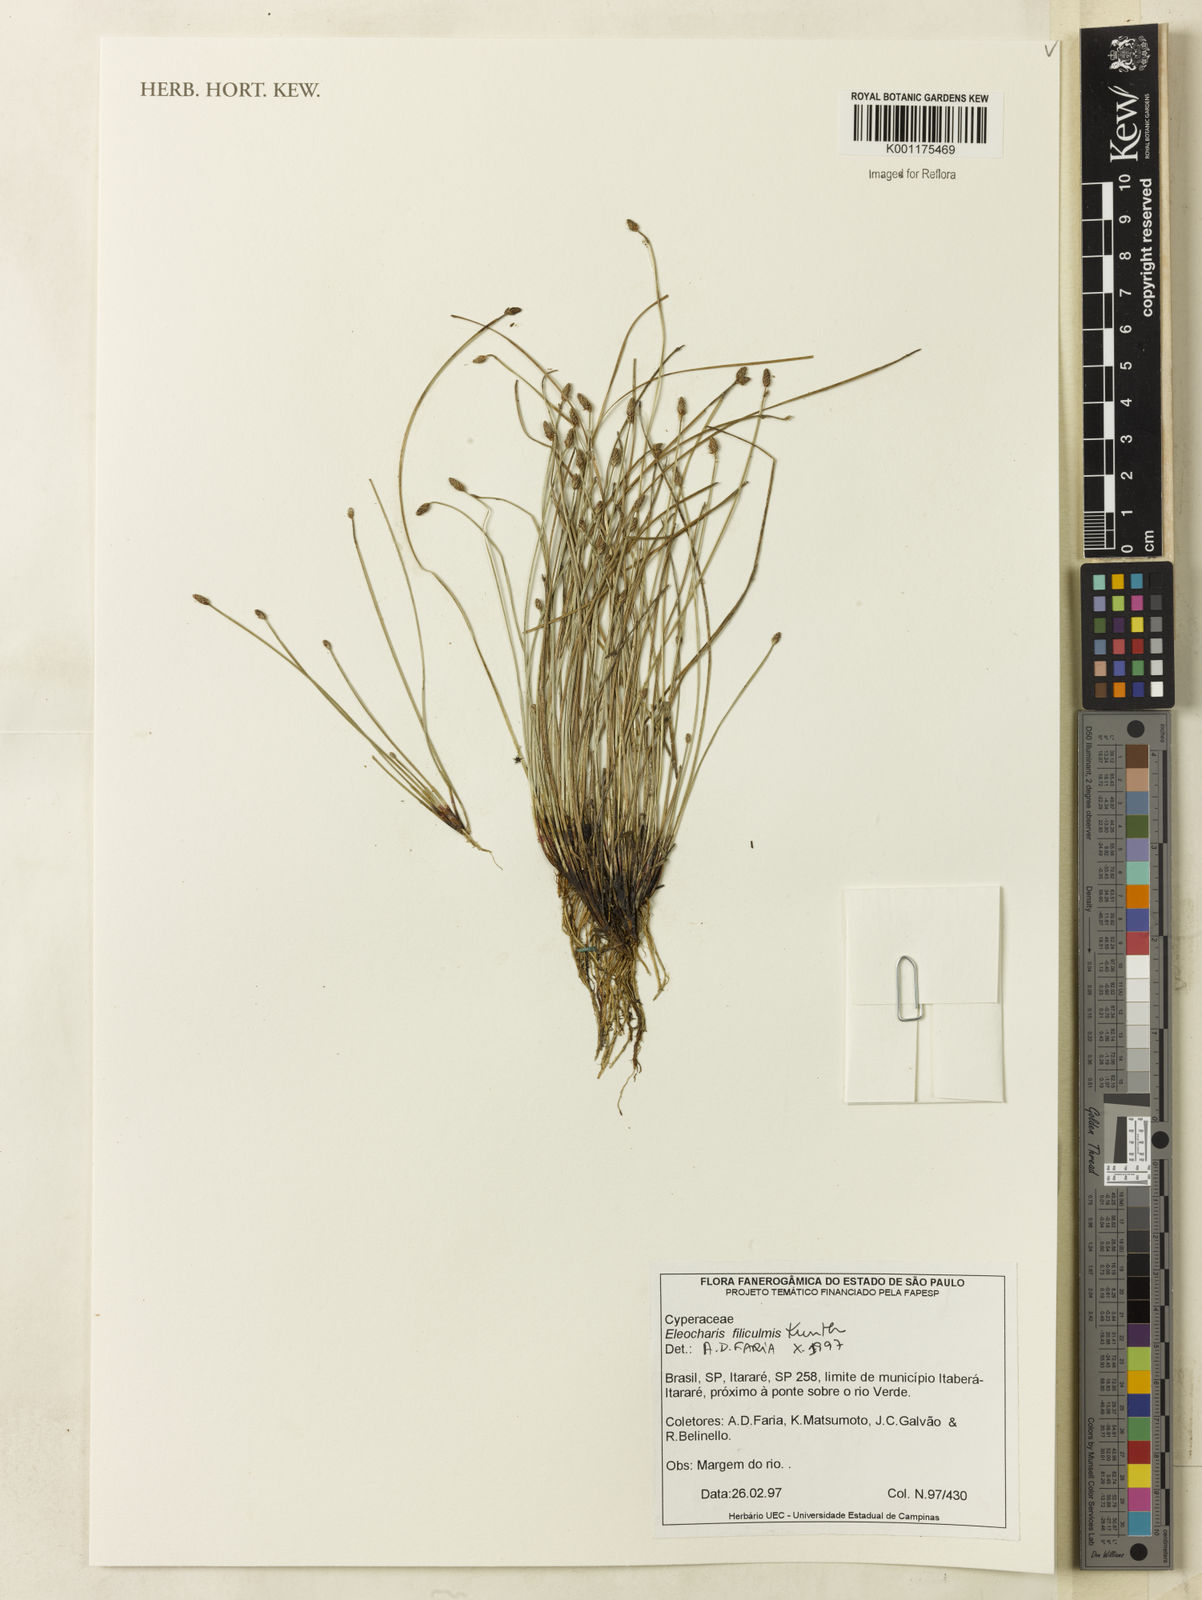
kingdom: Plantae
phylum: Tracheophyta
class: Liliopsida
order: Poales
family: Cyperaceae
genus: Eleocharis
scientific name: Eleocharis filiculmis
